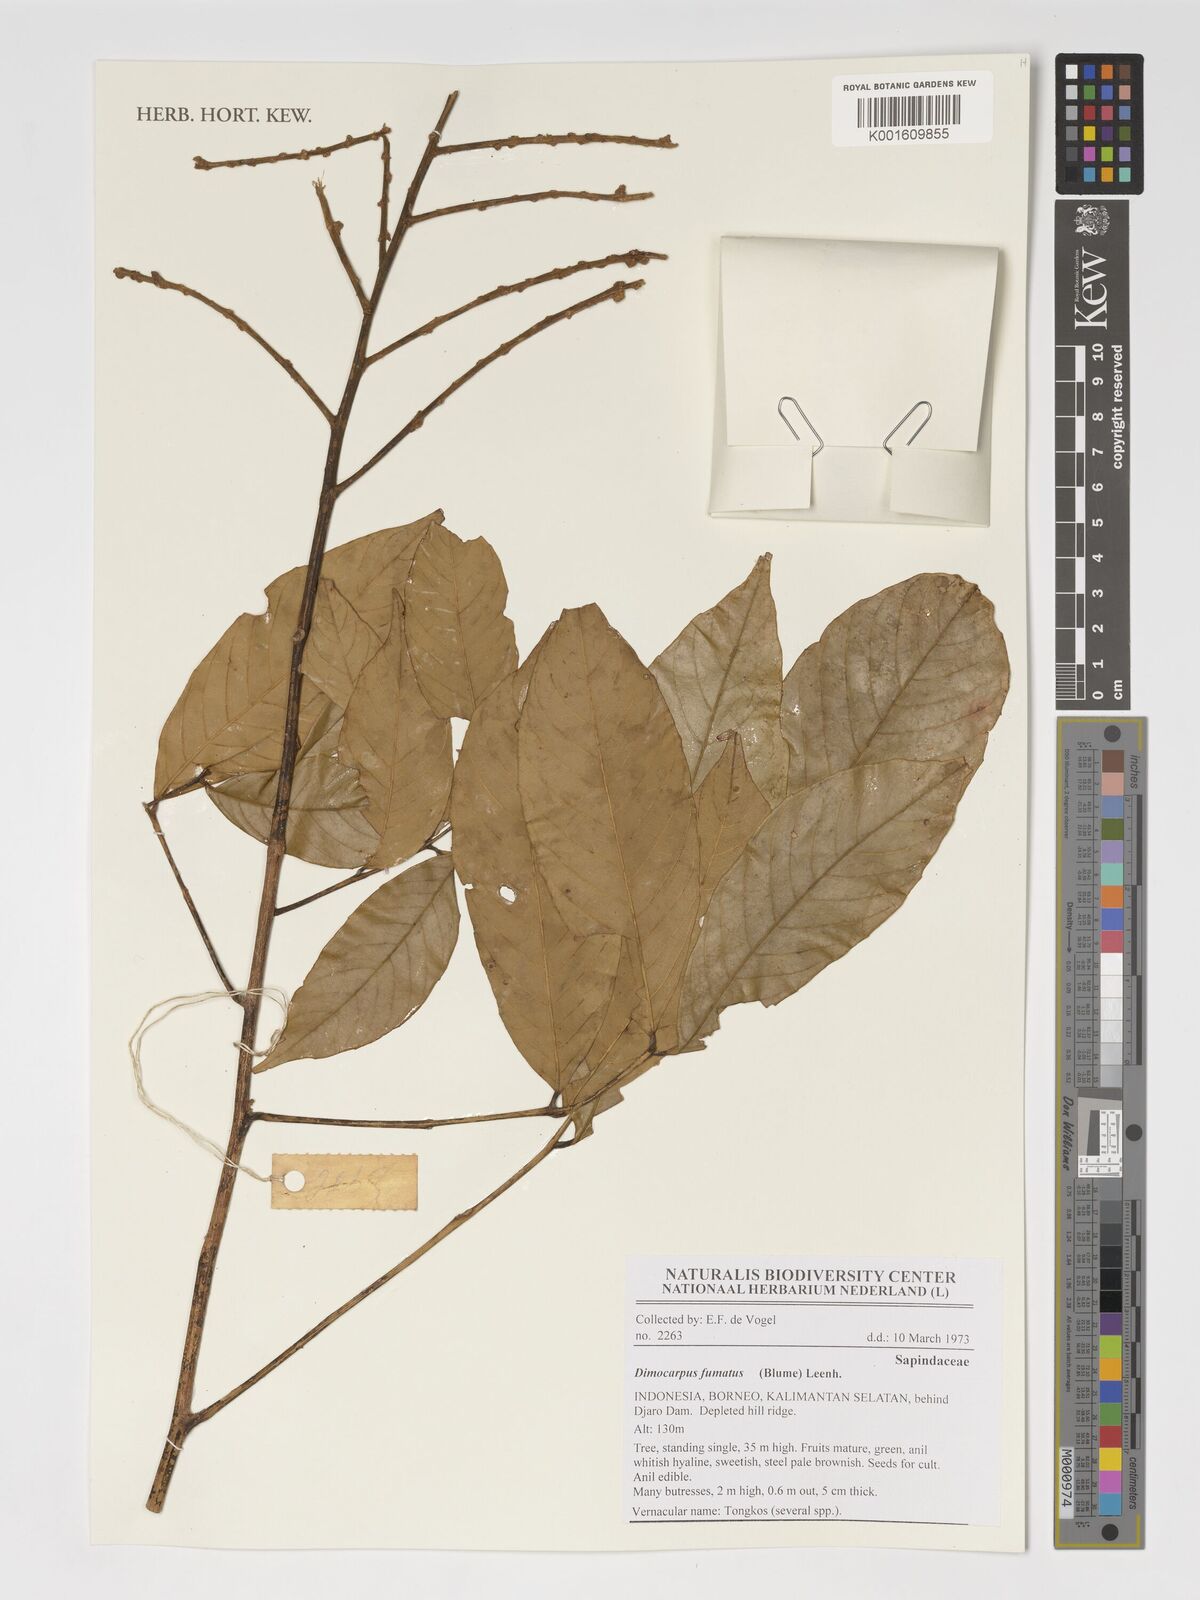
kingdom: Plantae
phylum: Tracheophyta
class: Magnoliopsida
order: Sapindales
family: Sapindaceae
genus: Dimocarpus
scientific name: Dimocarpus fumatus
